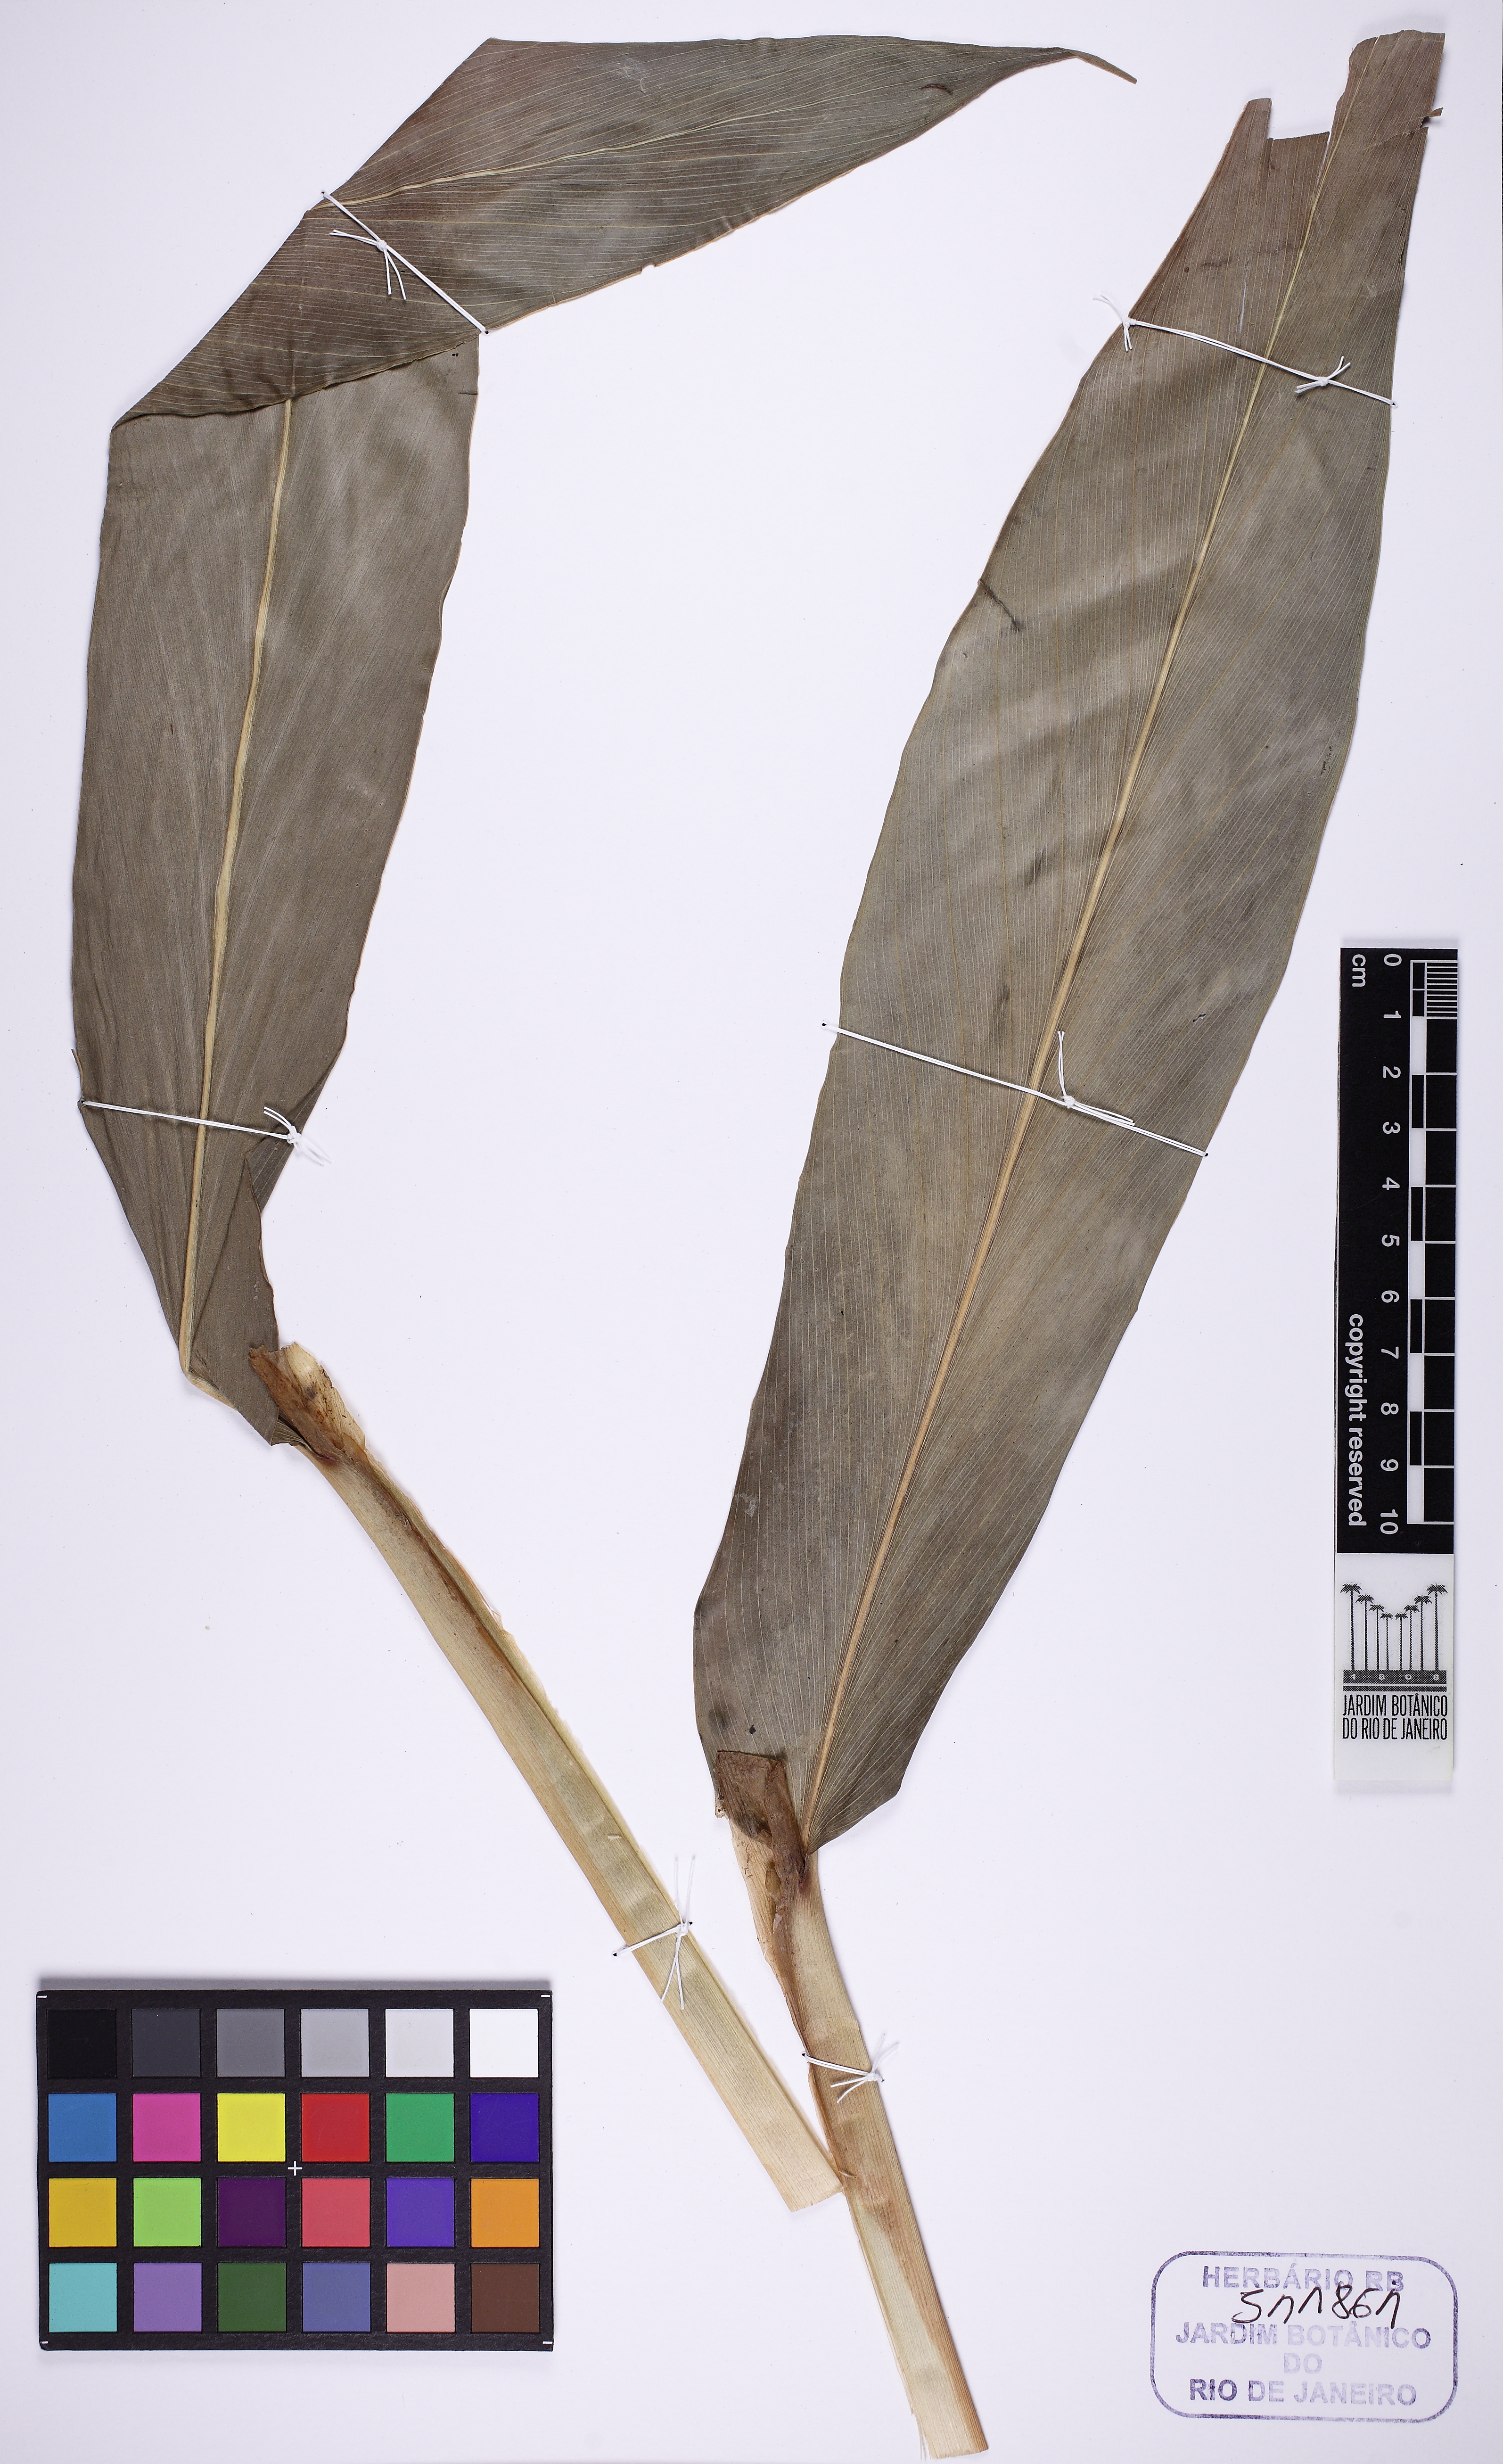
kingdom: Plantae
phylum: Tracheophyta
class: Liliopsida
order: Zingiberales
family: Zingiberaceae
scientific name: Zingiberaceae
